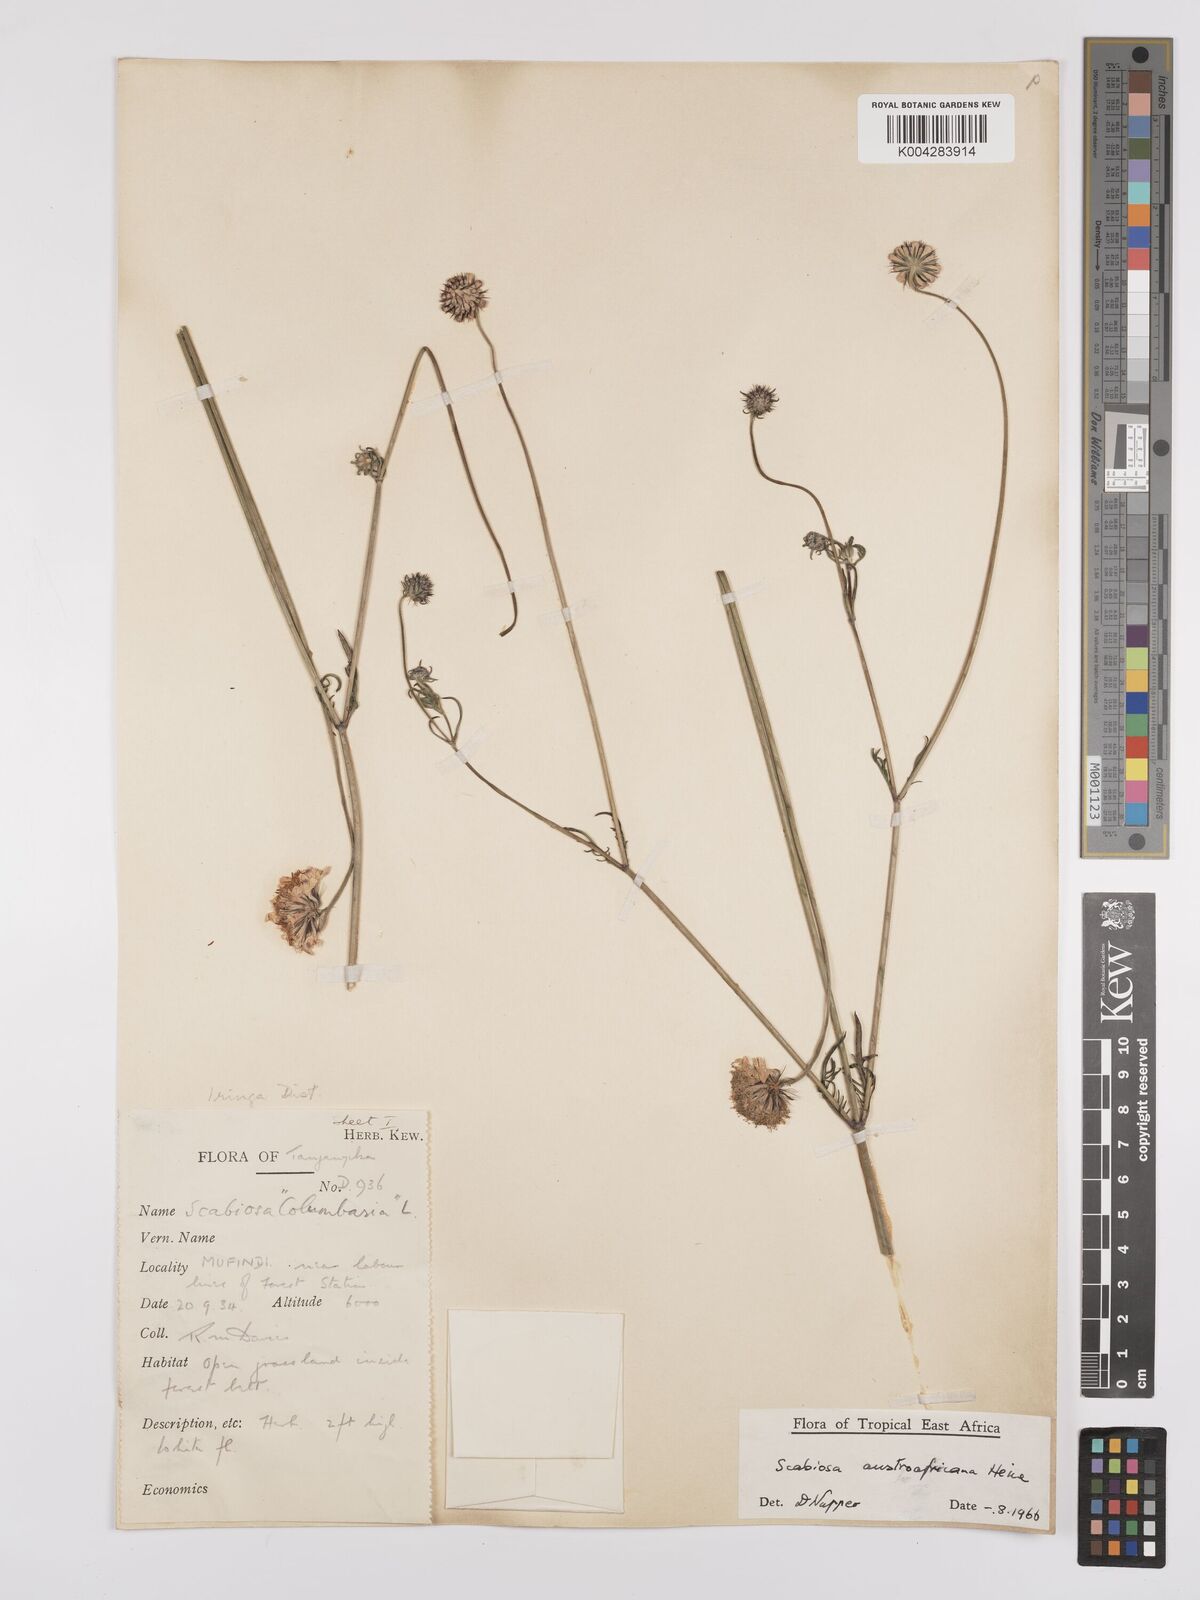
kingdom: Plantae
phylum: Tracheophyta
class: Magnoliopsida
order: Dipsacales
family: Caprifoliaceae
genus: Scabiosa
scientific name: Scabiosa austroafricana
